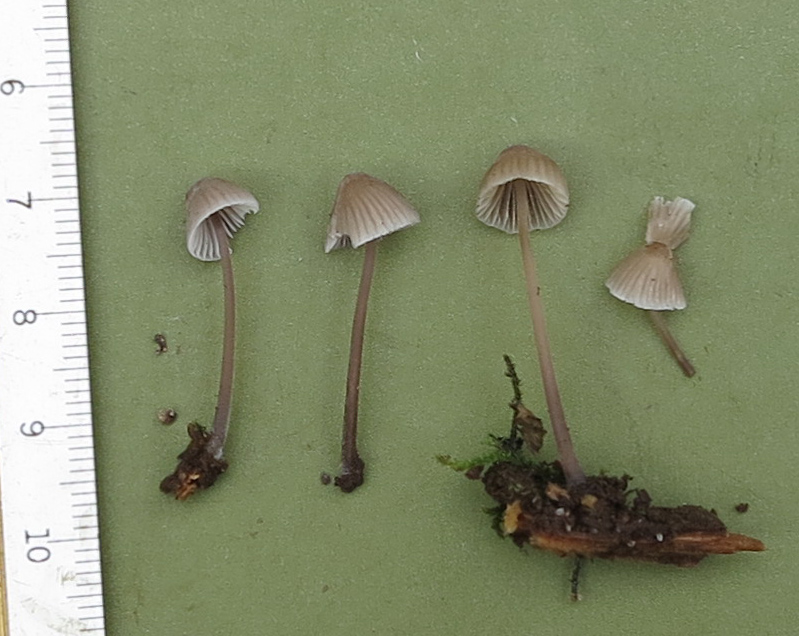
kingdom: Fungi
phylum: Basidiomycota
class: Agaricomycetes
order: Agaricales
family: Mycenaceae
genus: Mycena
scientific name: Mycena abramsii
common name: sommer-huesvamp
